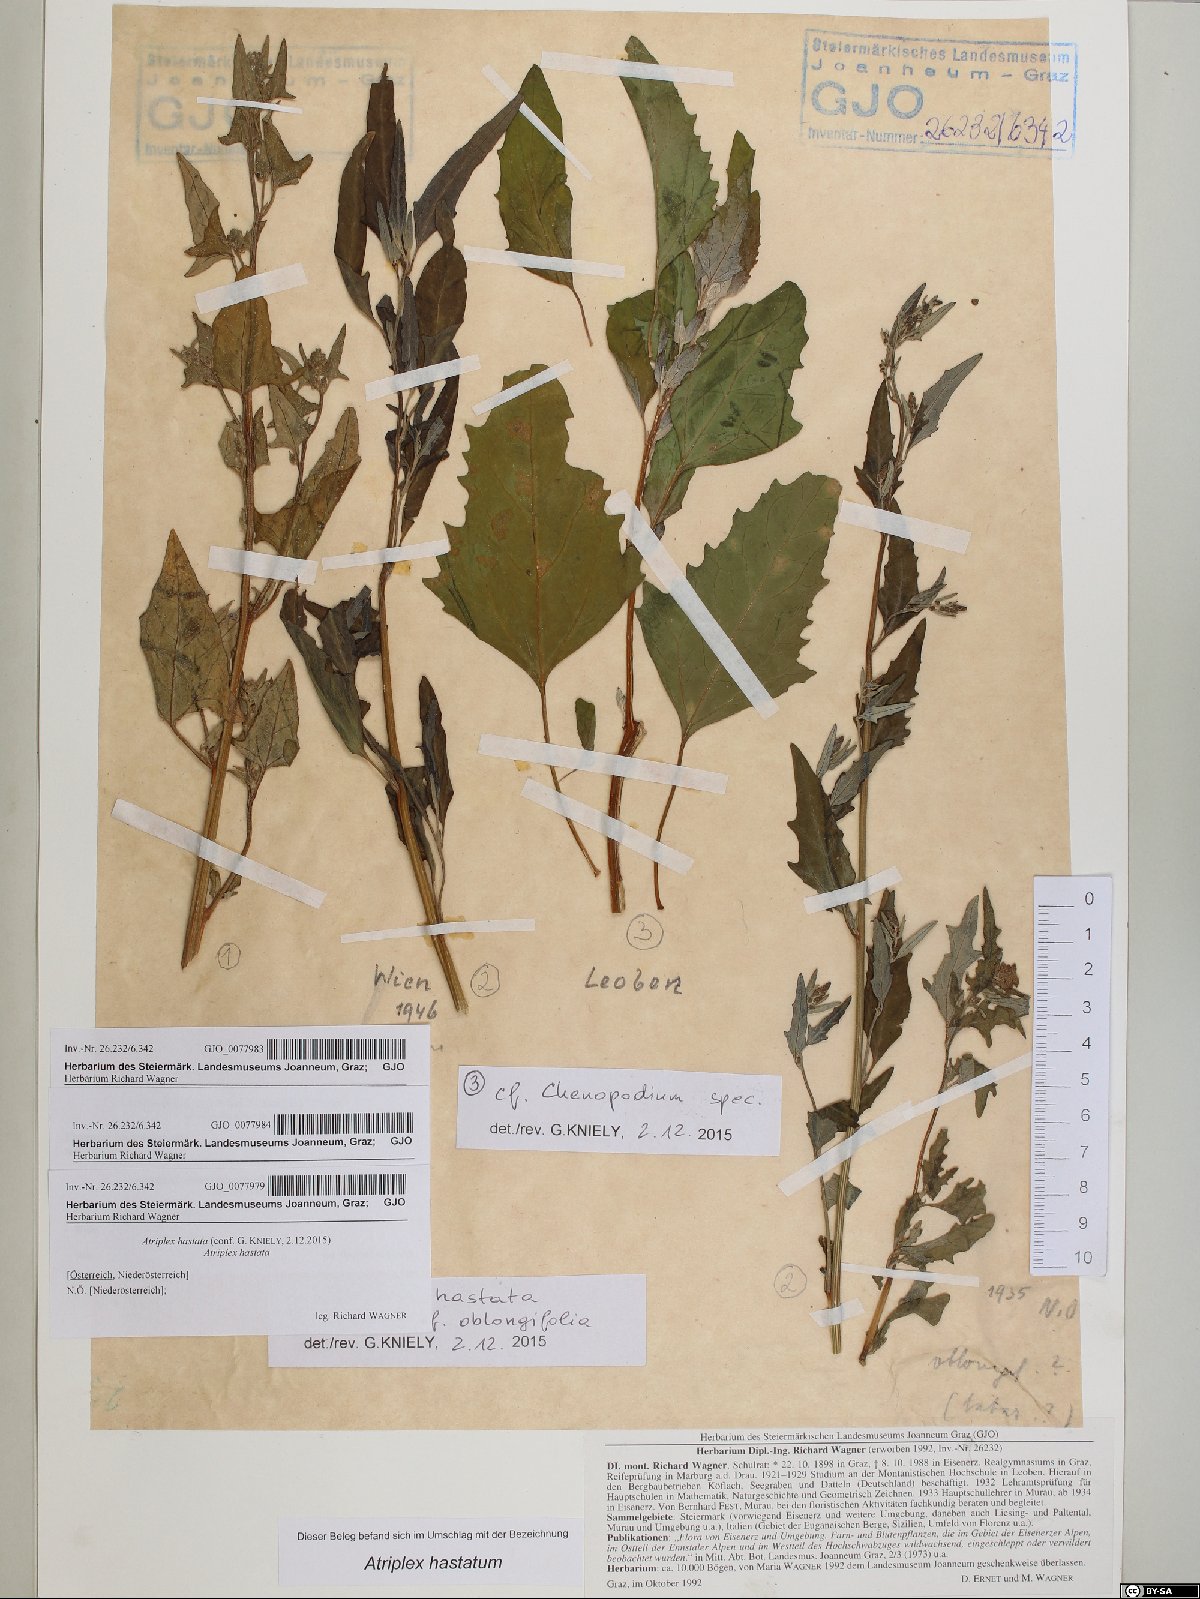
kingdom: Plantae
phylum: Tracheophyta
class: Magnoliopsida
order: Caryophyllales
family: Amaranthaceae
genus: Atriplex
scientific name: Atriplex oblongifolia
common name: Oblongleaf orache
